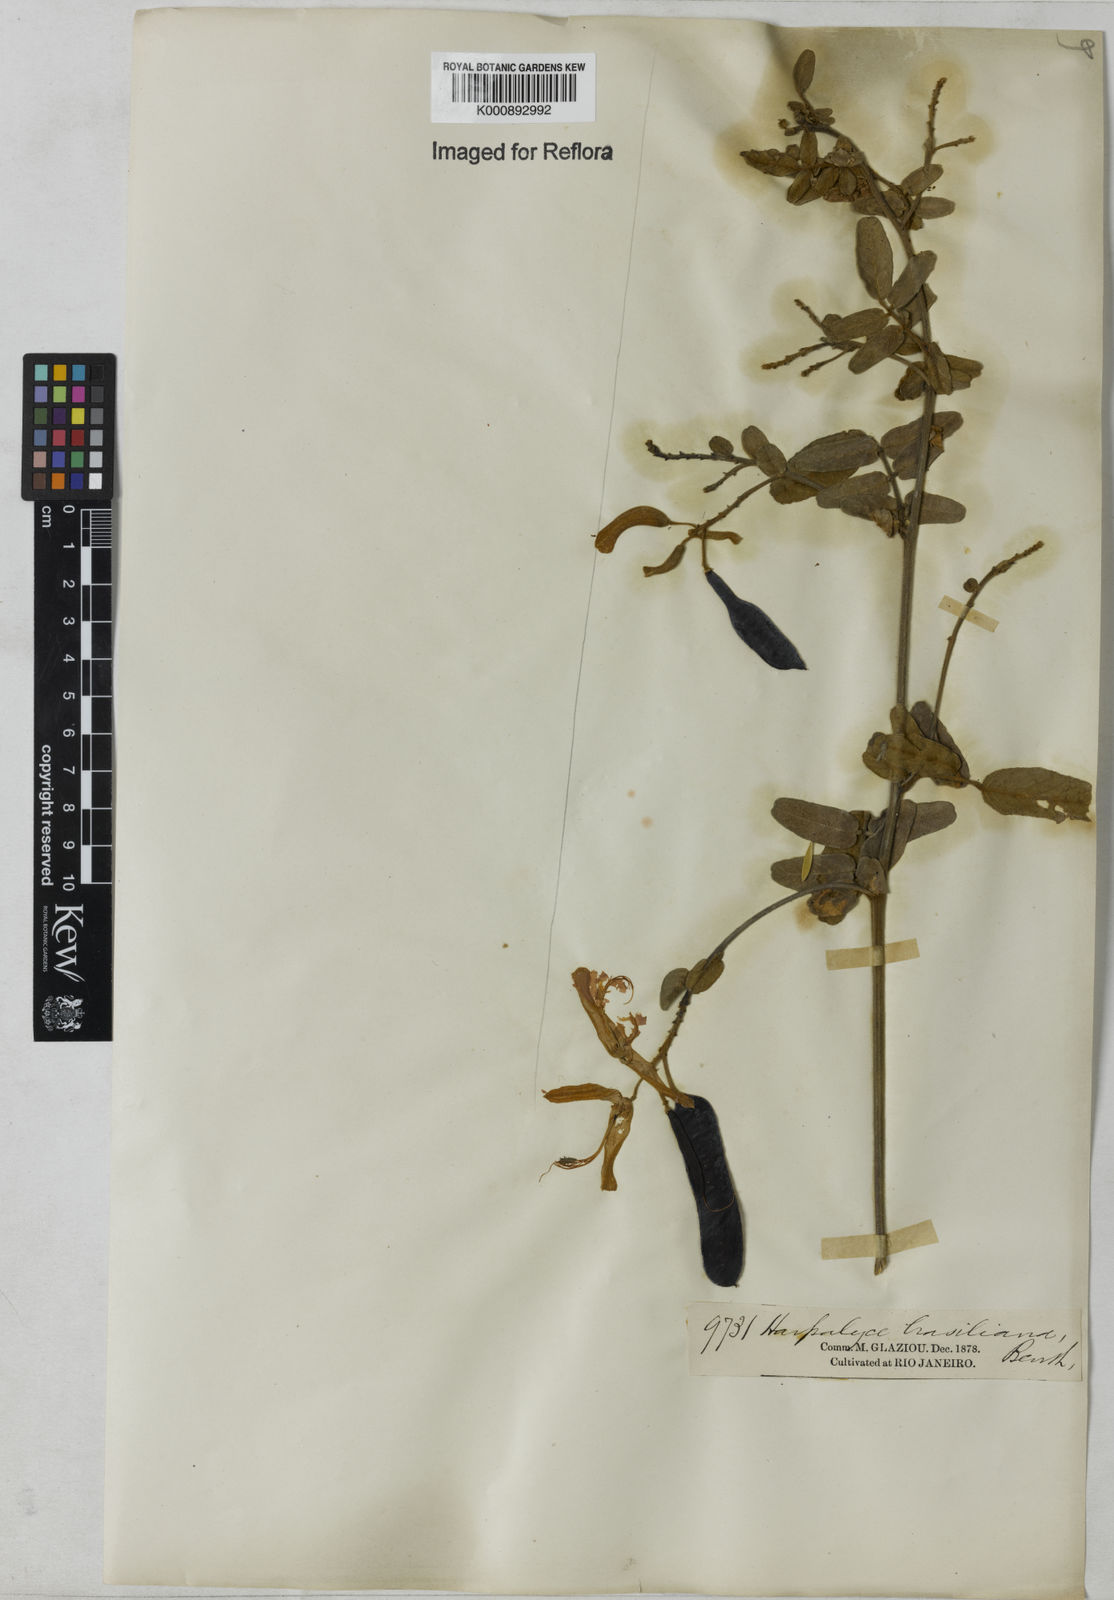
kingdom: Plantae
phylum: Tracheophyta
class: Magnoliopsida
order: Fabales
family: Fabaceae
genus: Harpalyce
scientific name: Harpalyce brasiliana
